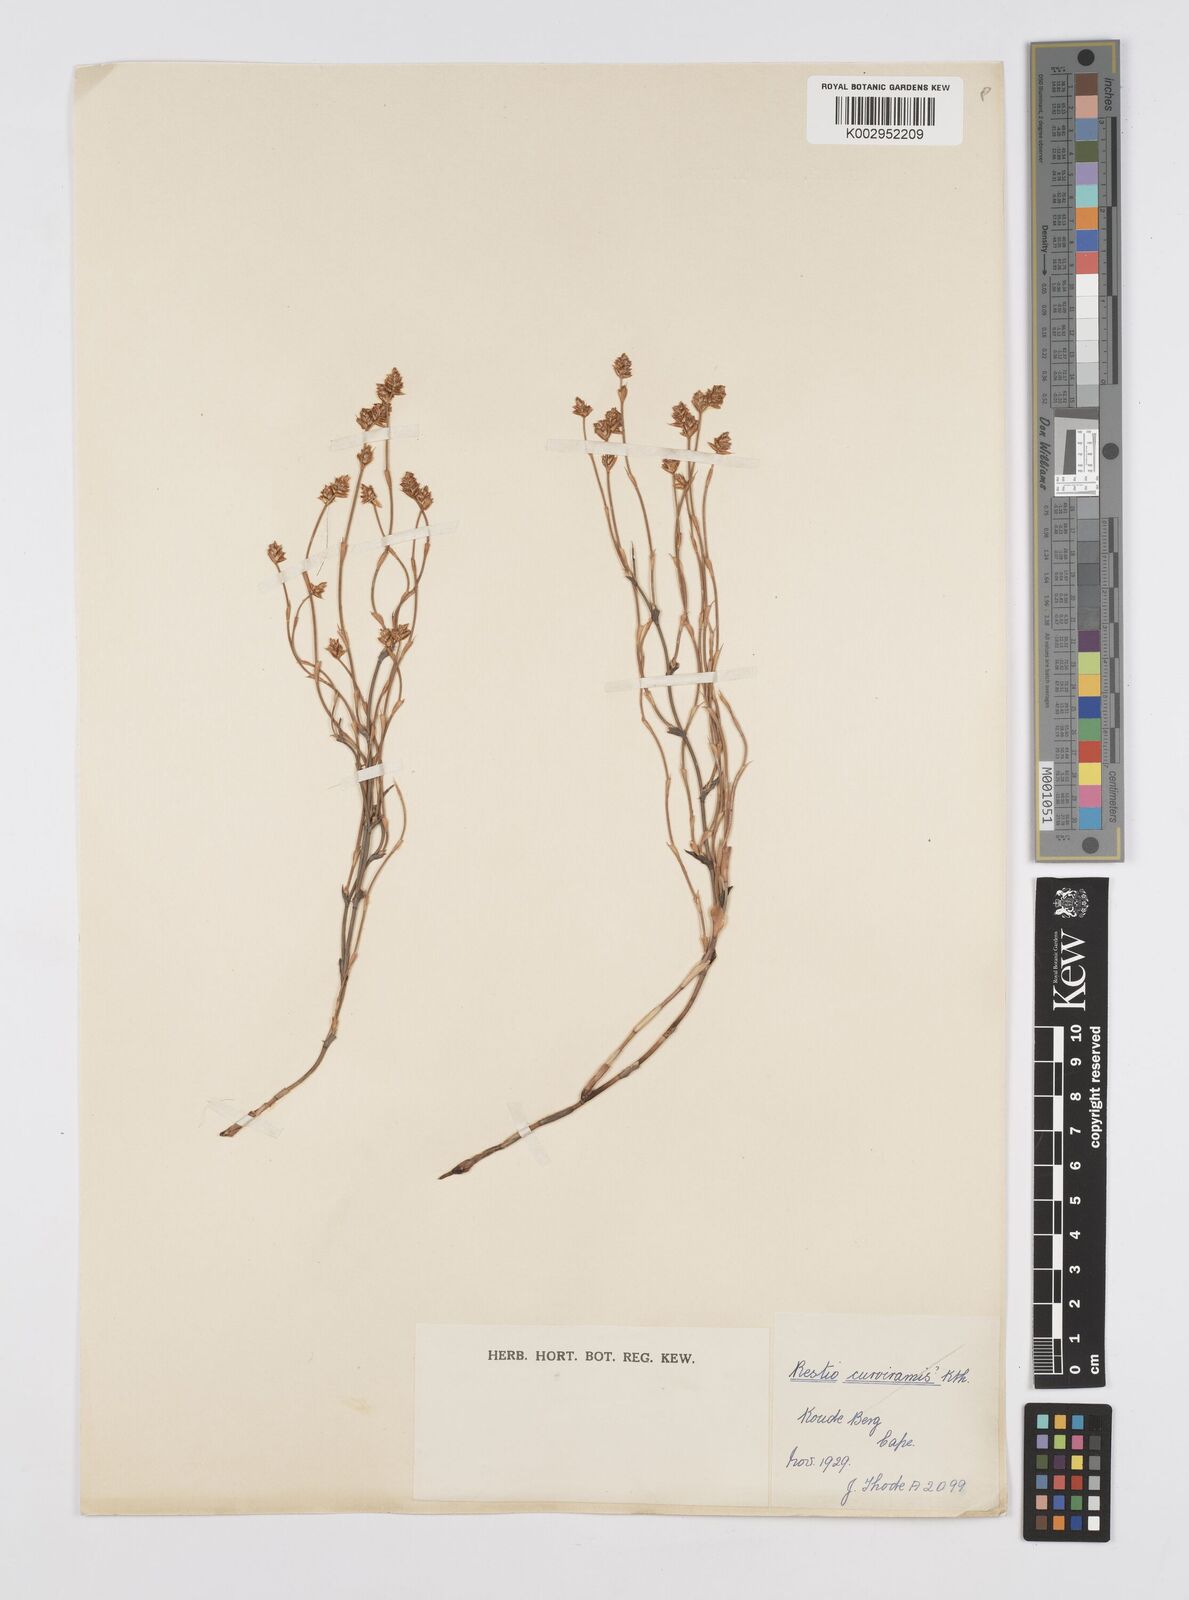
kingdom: Plantae
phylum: Tracheophyta
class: Liliopsida
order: Poales
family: Restionaceae
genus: Restio
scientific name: Restio vimineus
